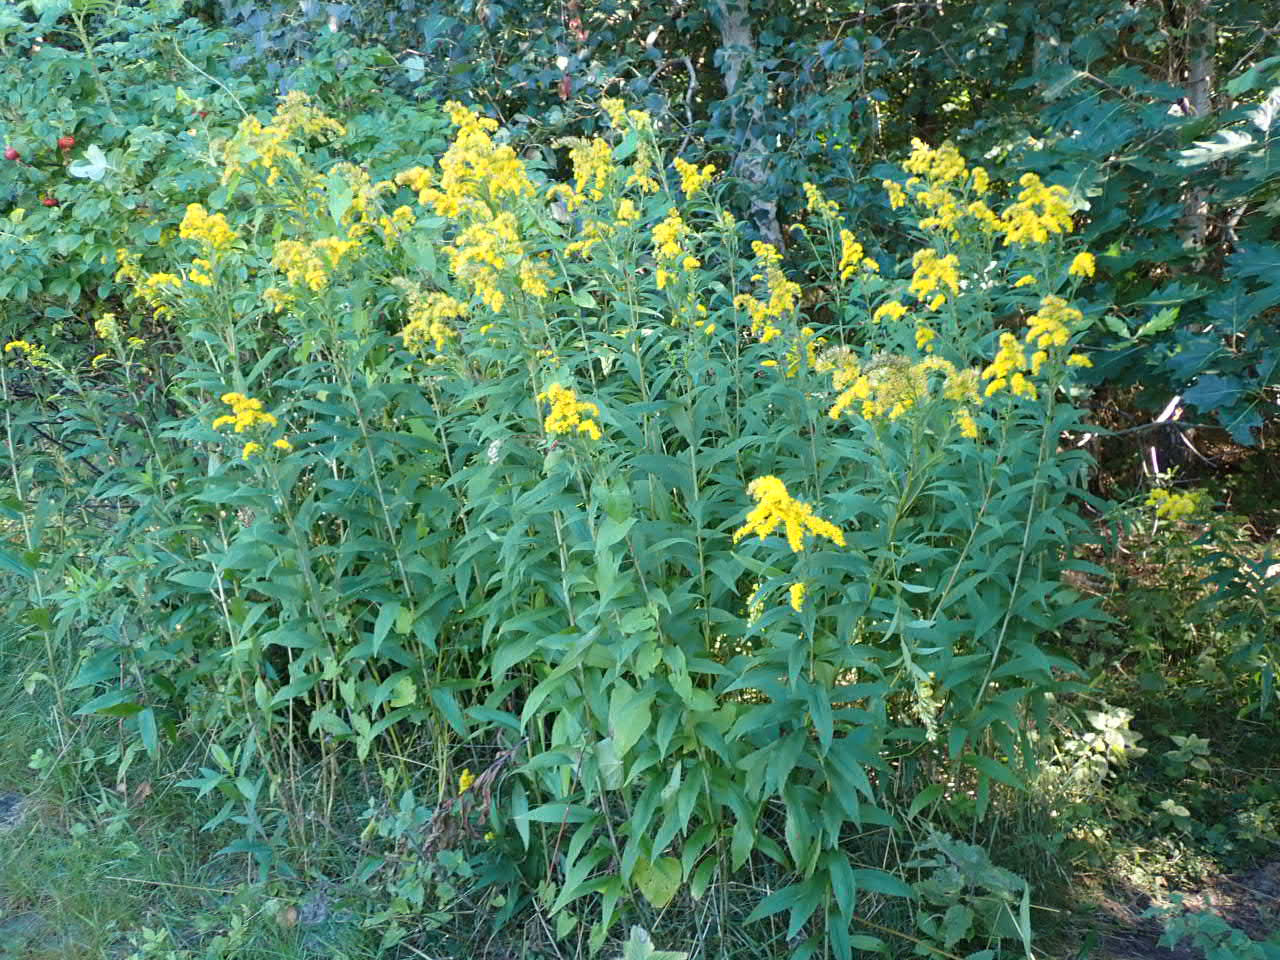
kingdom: Plantae
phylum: Tracheophyta
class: Magnoliopsida
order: Asterales
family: Asteraceae
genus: Solidago
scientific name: Solidago gigantea
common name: Sildig gyldenris
